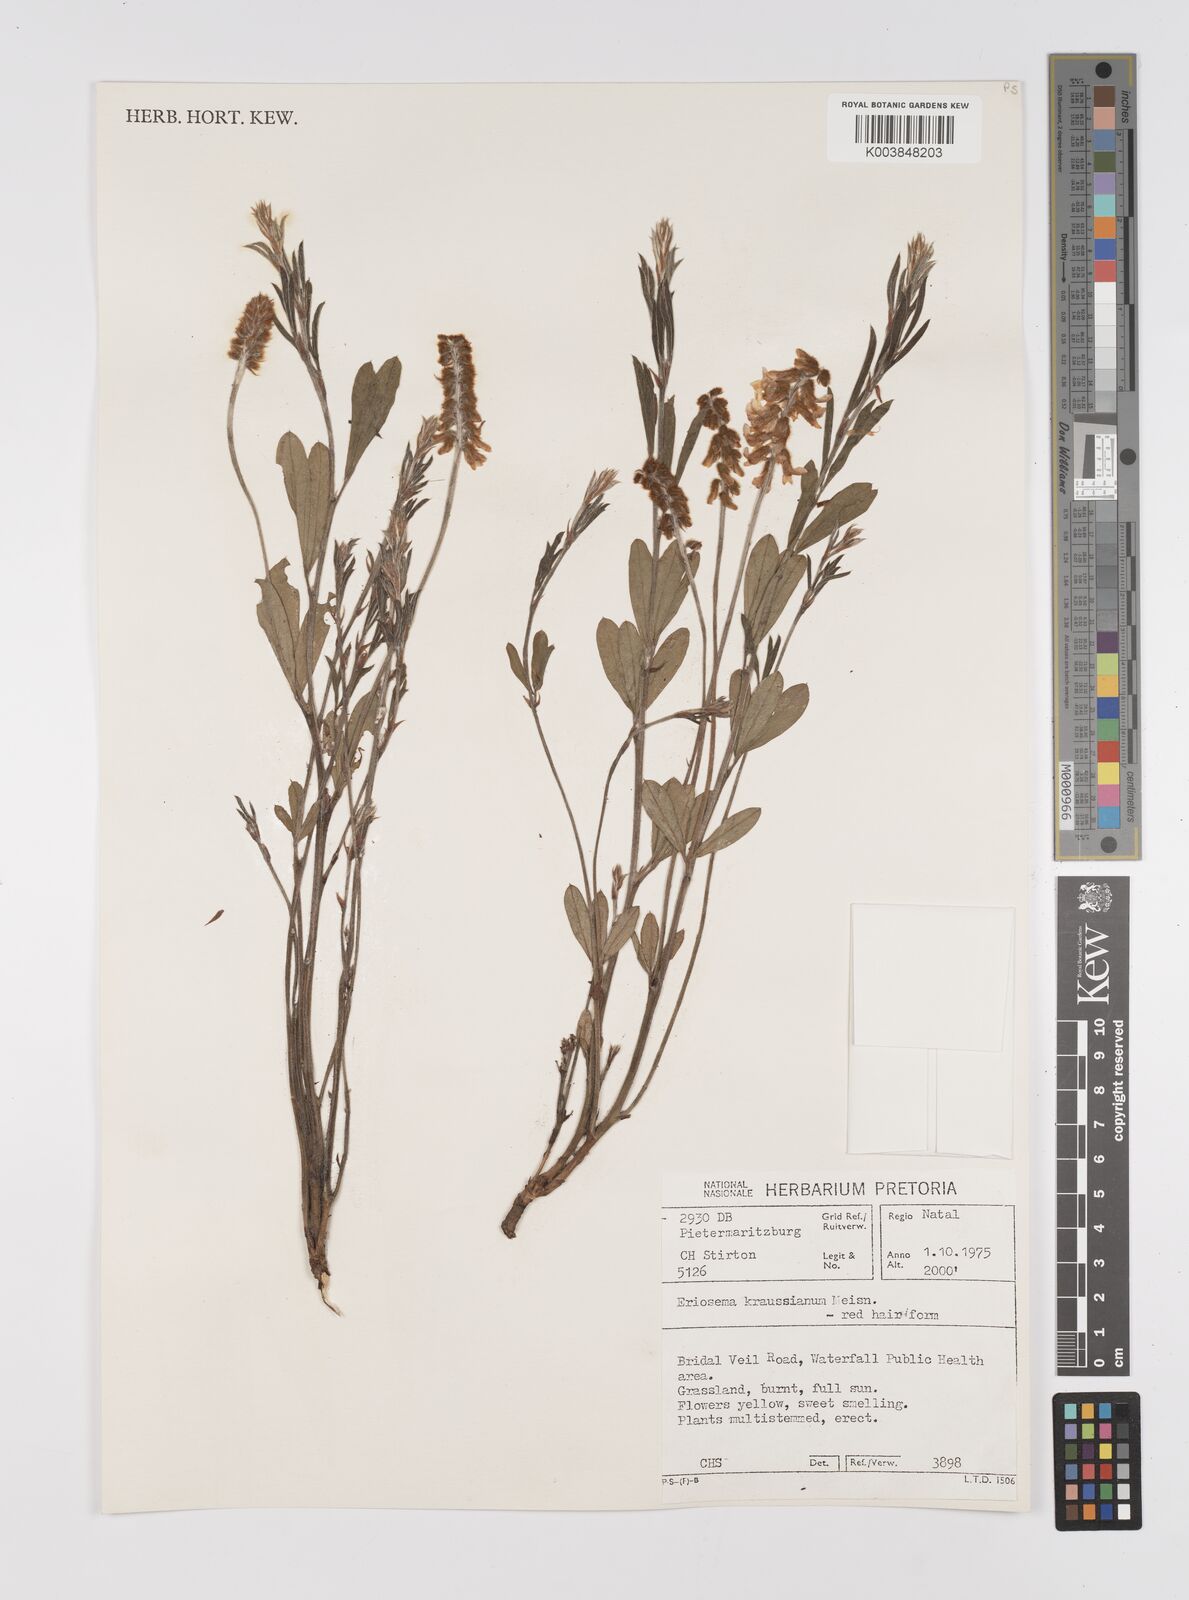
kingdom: Plantae
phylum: Tracheophyta
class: Magnoliopsida
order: Fabales
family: Fabaceae
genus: Eriosema
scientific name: Eriosema kraussianum
